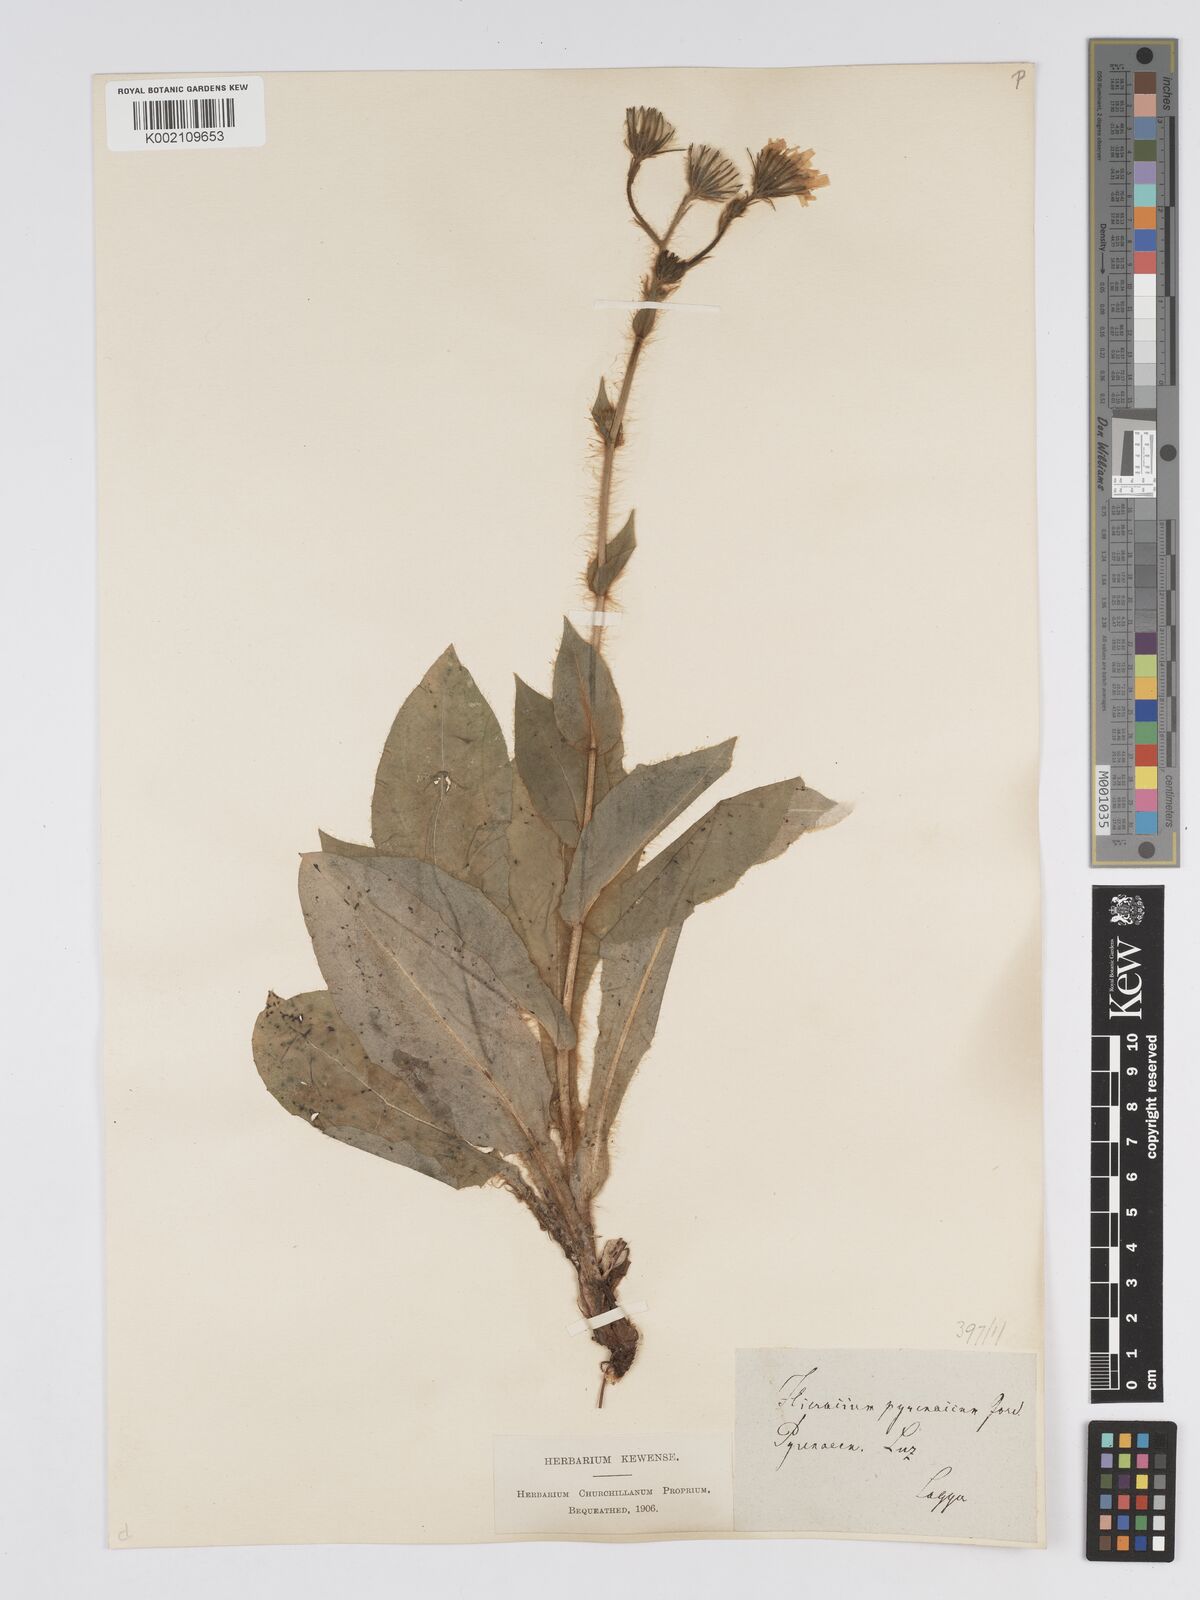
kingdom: Plantae
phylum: Tracheophyta
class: Magnoliopsida
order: Asterales
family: Asteraceae
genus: Hieracium
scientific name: Hieracium nobile
